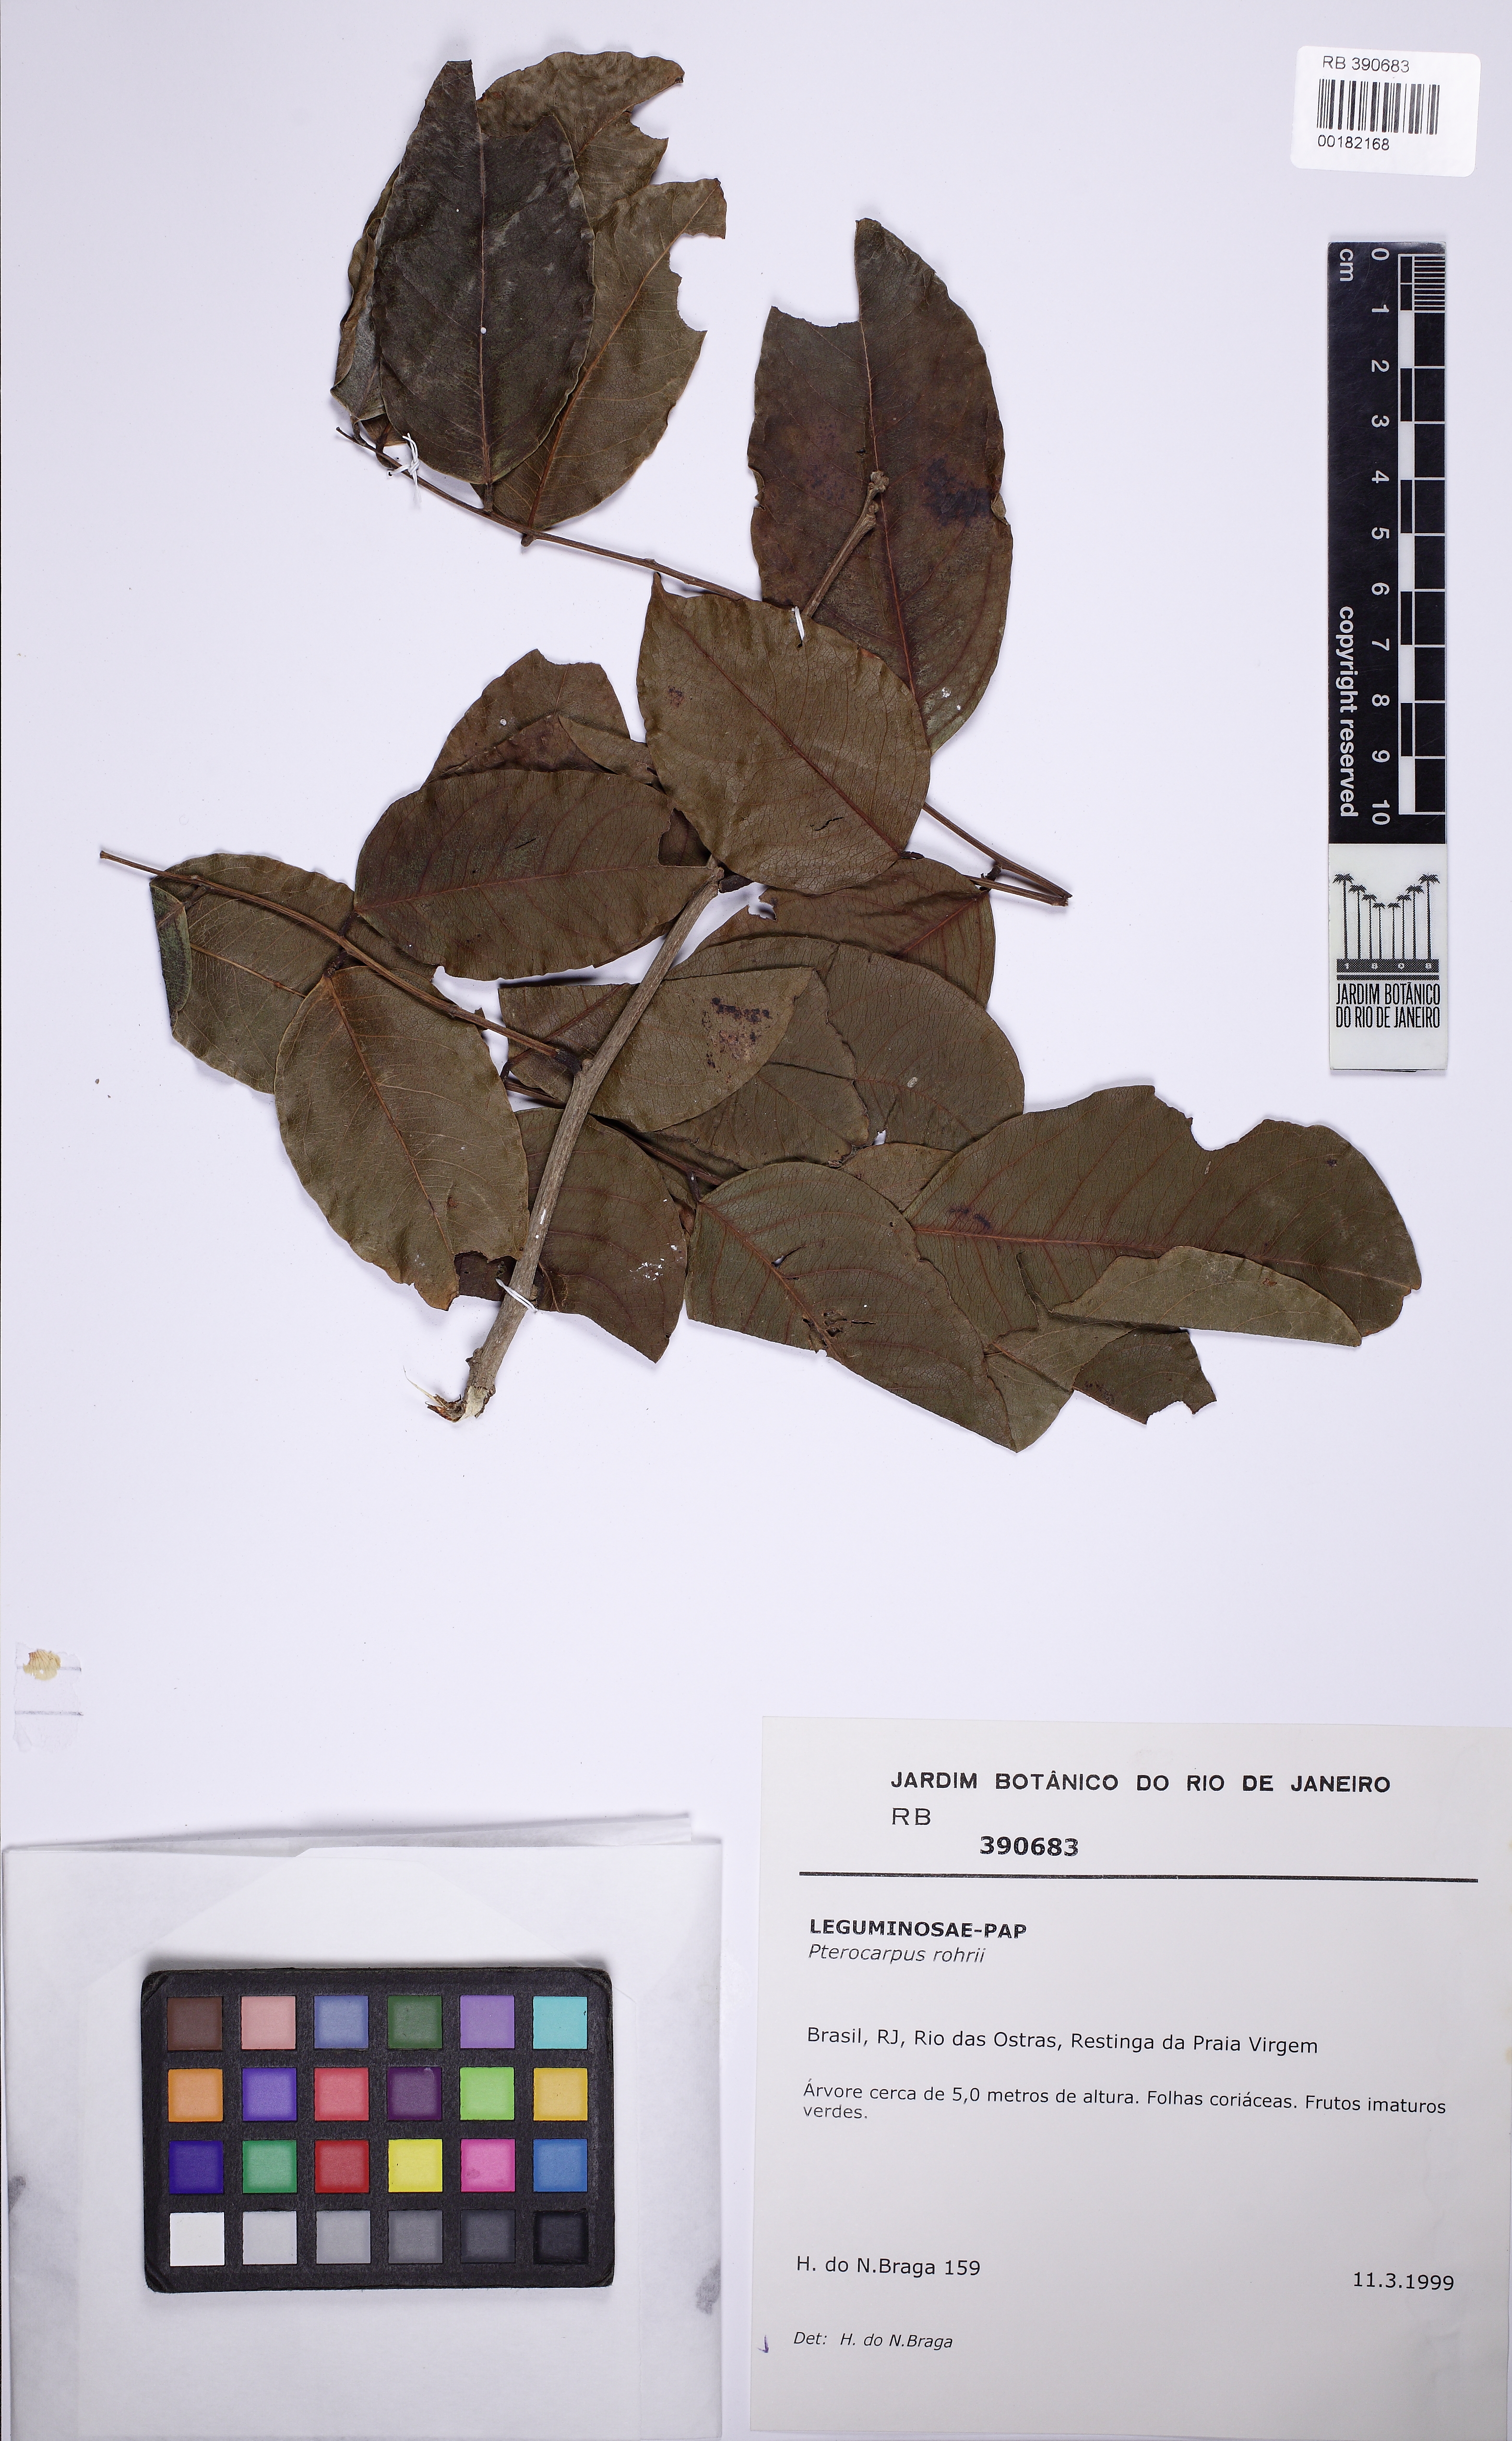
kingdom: Plantae
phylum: Tracheophyta
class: Magnoliopsida
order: Fabales
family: Fabaceae
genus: Pterocarpus
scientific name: Pterocarpus indicus
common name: Burmese rosewood
